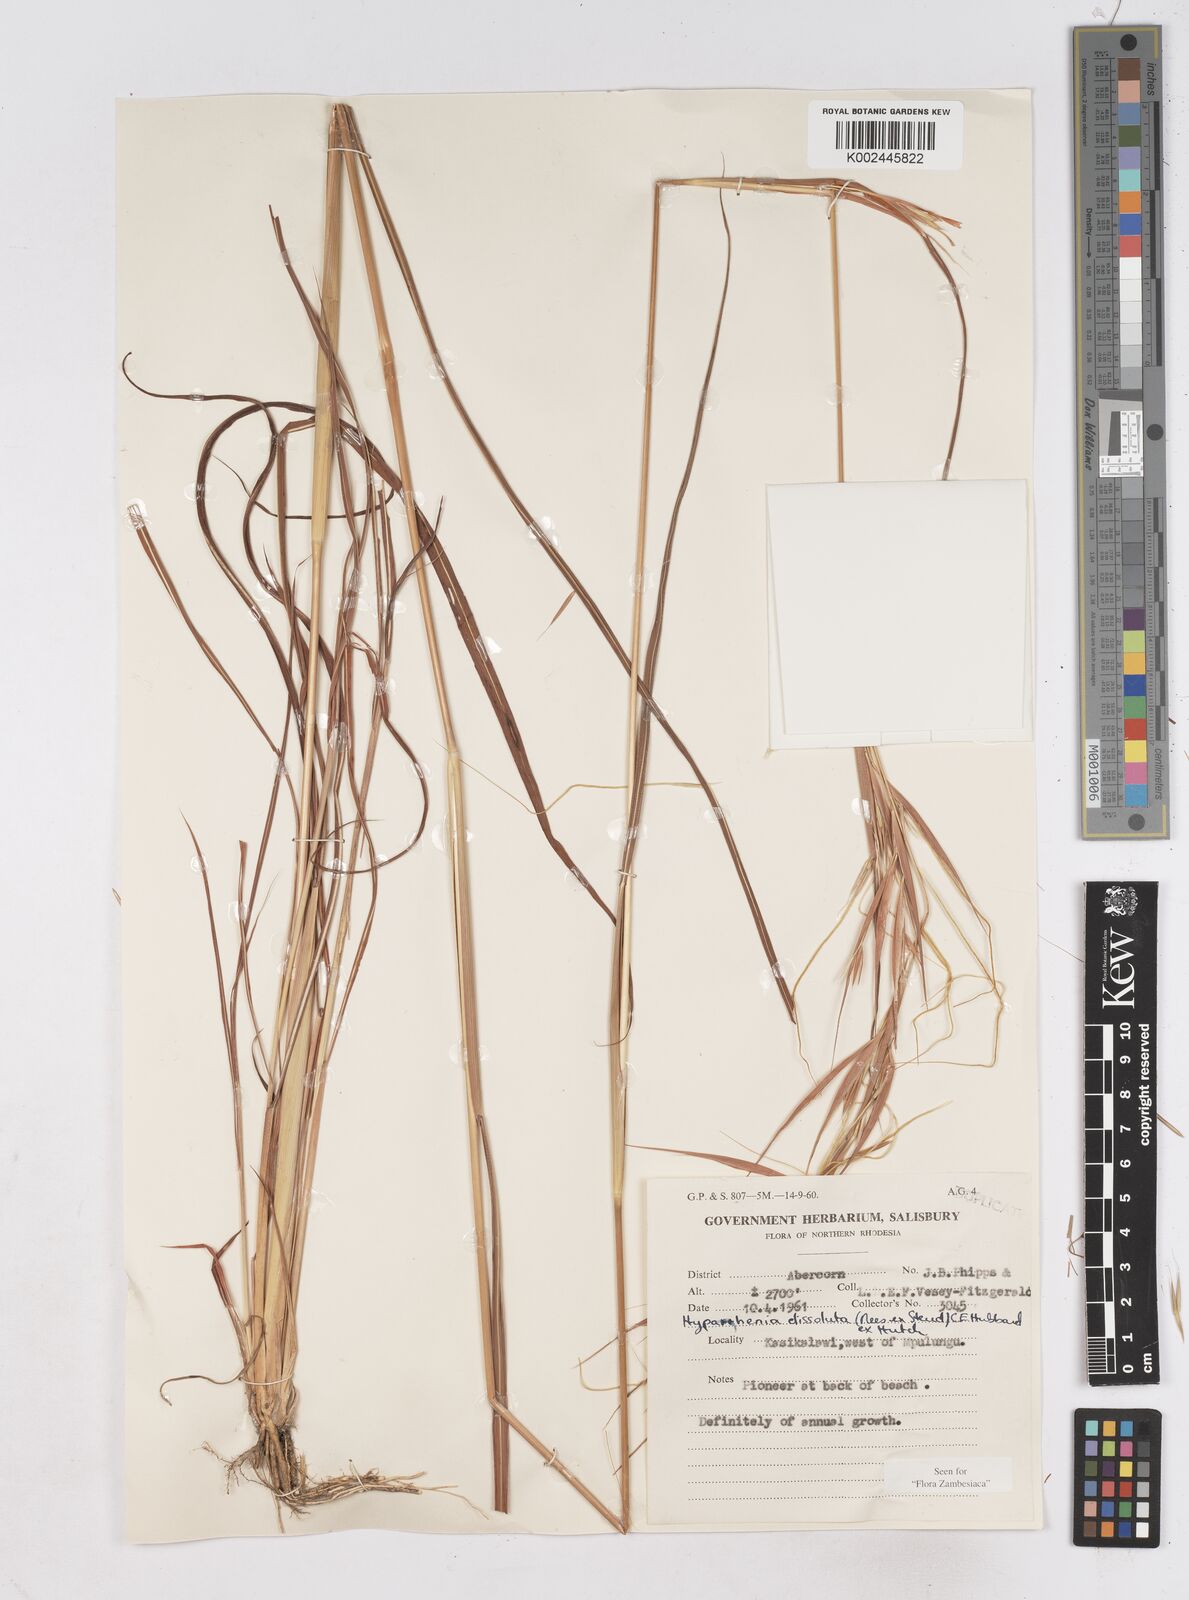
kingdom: Plantae
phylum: Tracheophyta
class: Liliopsida
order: Poales
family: Poaceae
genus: Hyperthelia
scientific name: Hyperthelia dissoluta
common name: Yellow thatching grass
